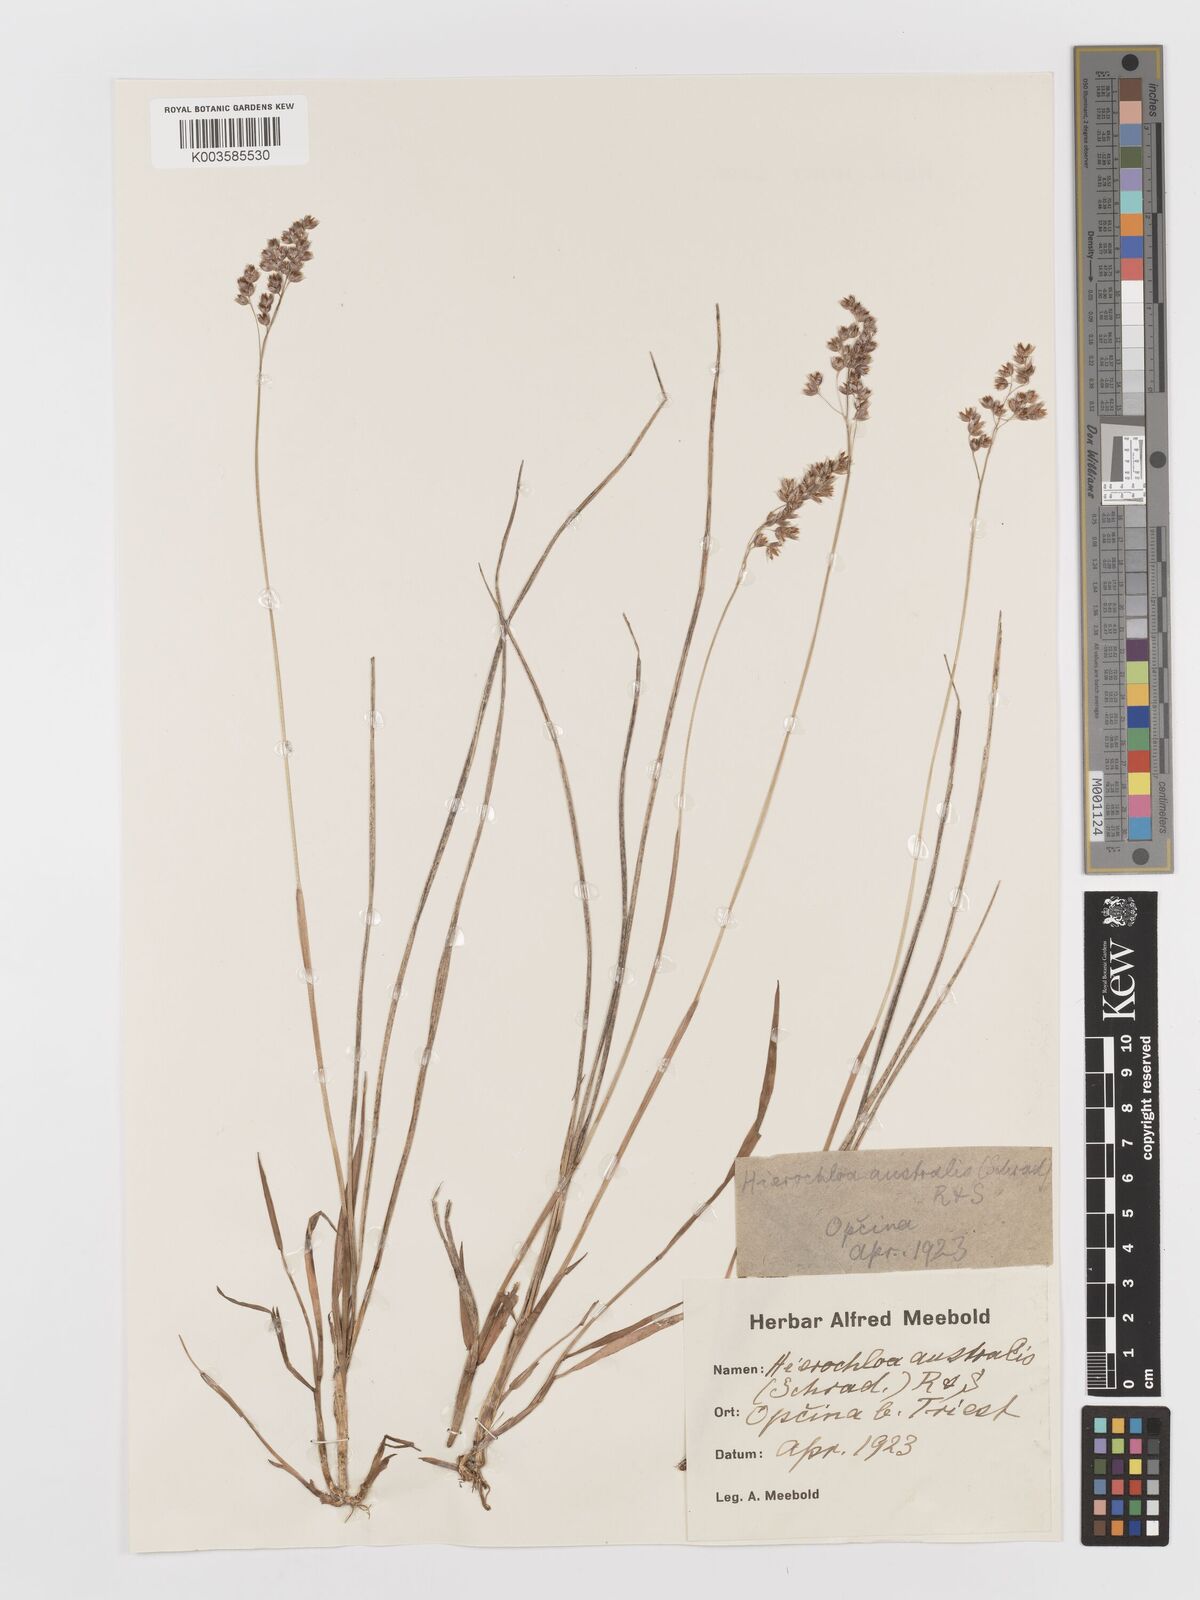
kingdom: Plantae
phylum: Tracheophyta
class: Liliopsida
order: Poales
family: Poaceae
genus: Anthoxanthum
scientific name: Anthoxanthum australe
